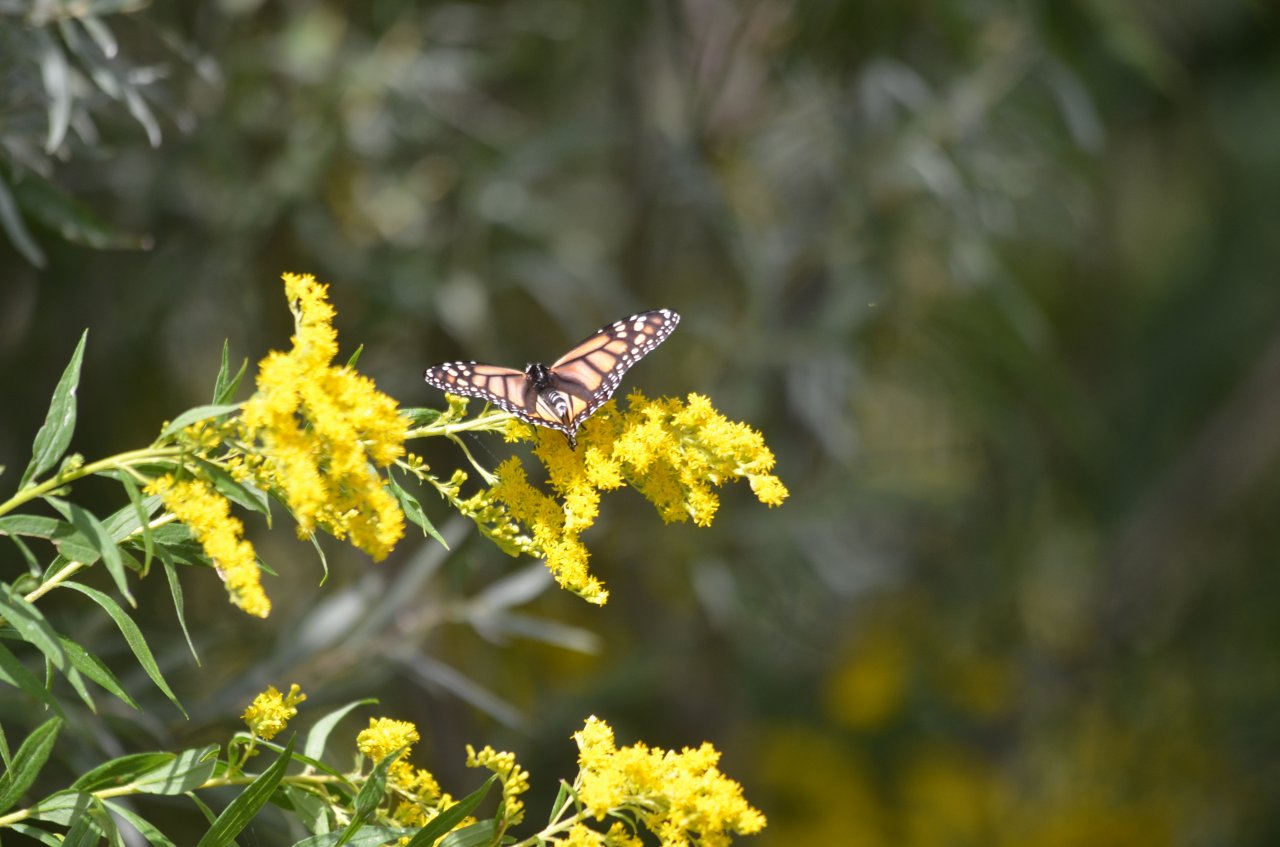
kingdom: Animalia
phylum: Arthropoda
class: Insecta
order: Lepidoptera
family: Nymphalidae
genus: Danaus
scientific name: Danaus plexippus
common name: Monarch
